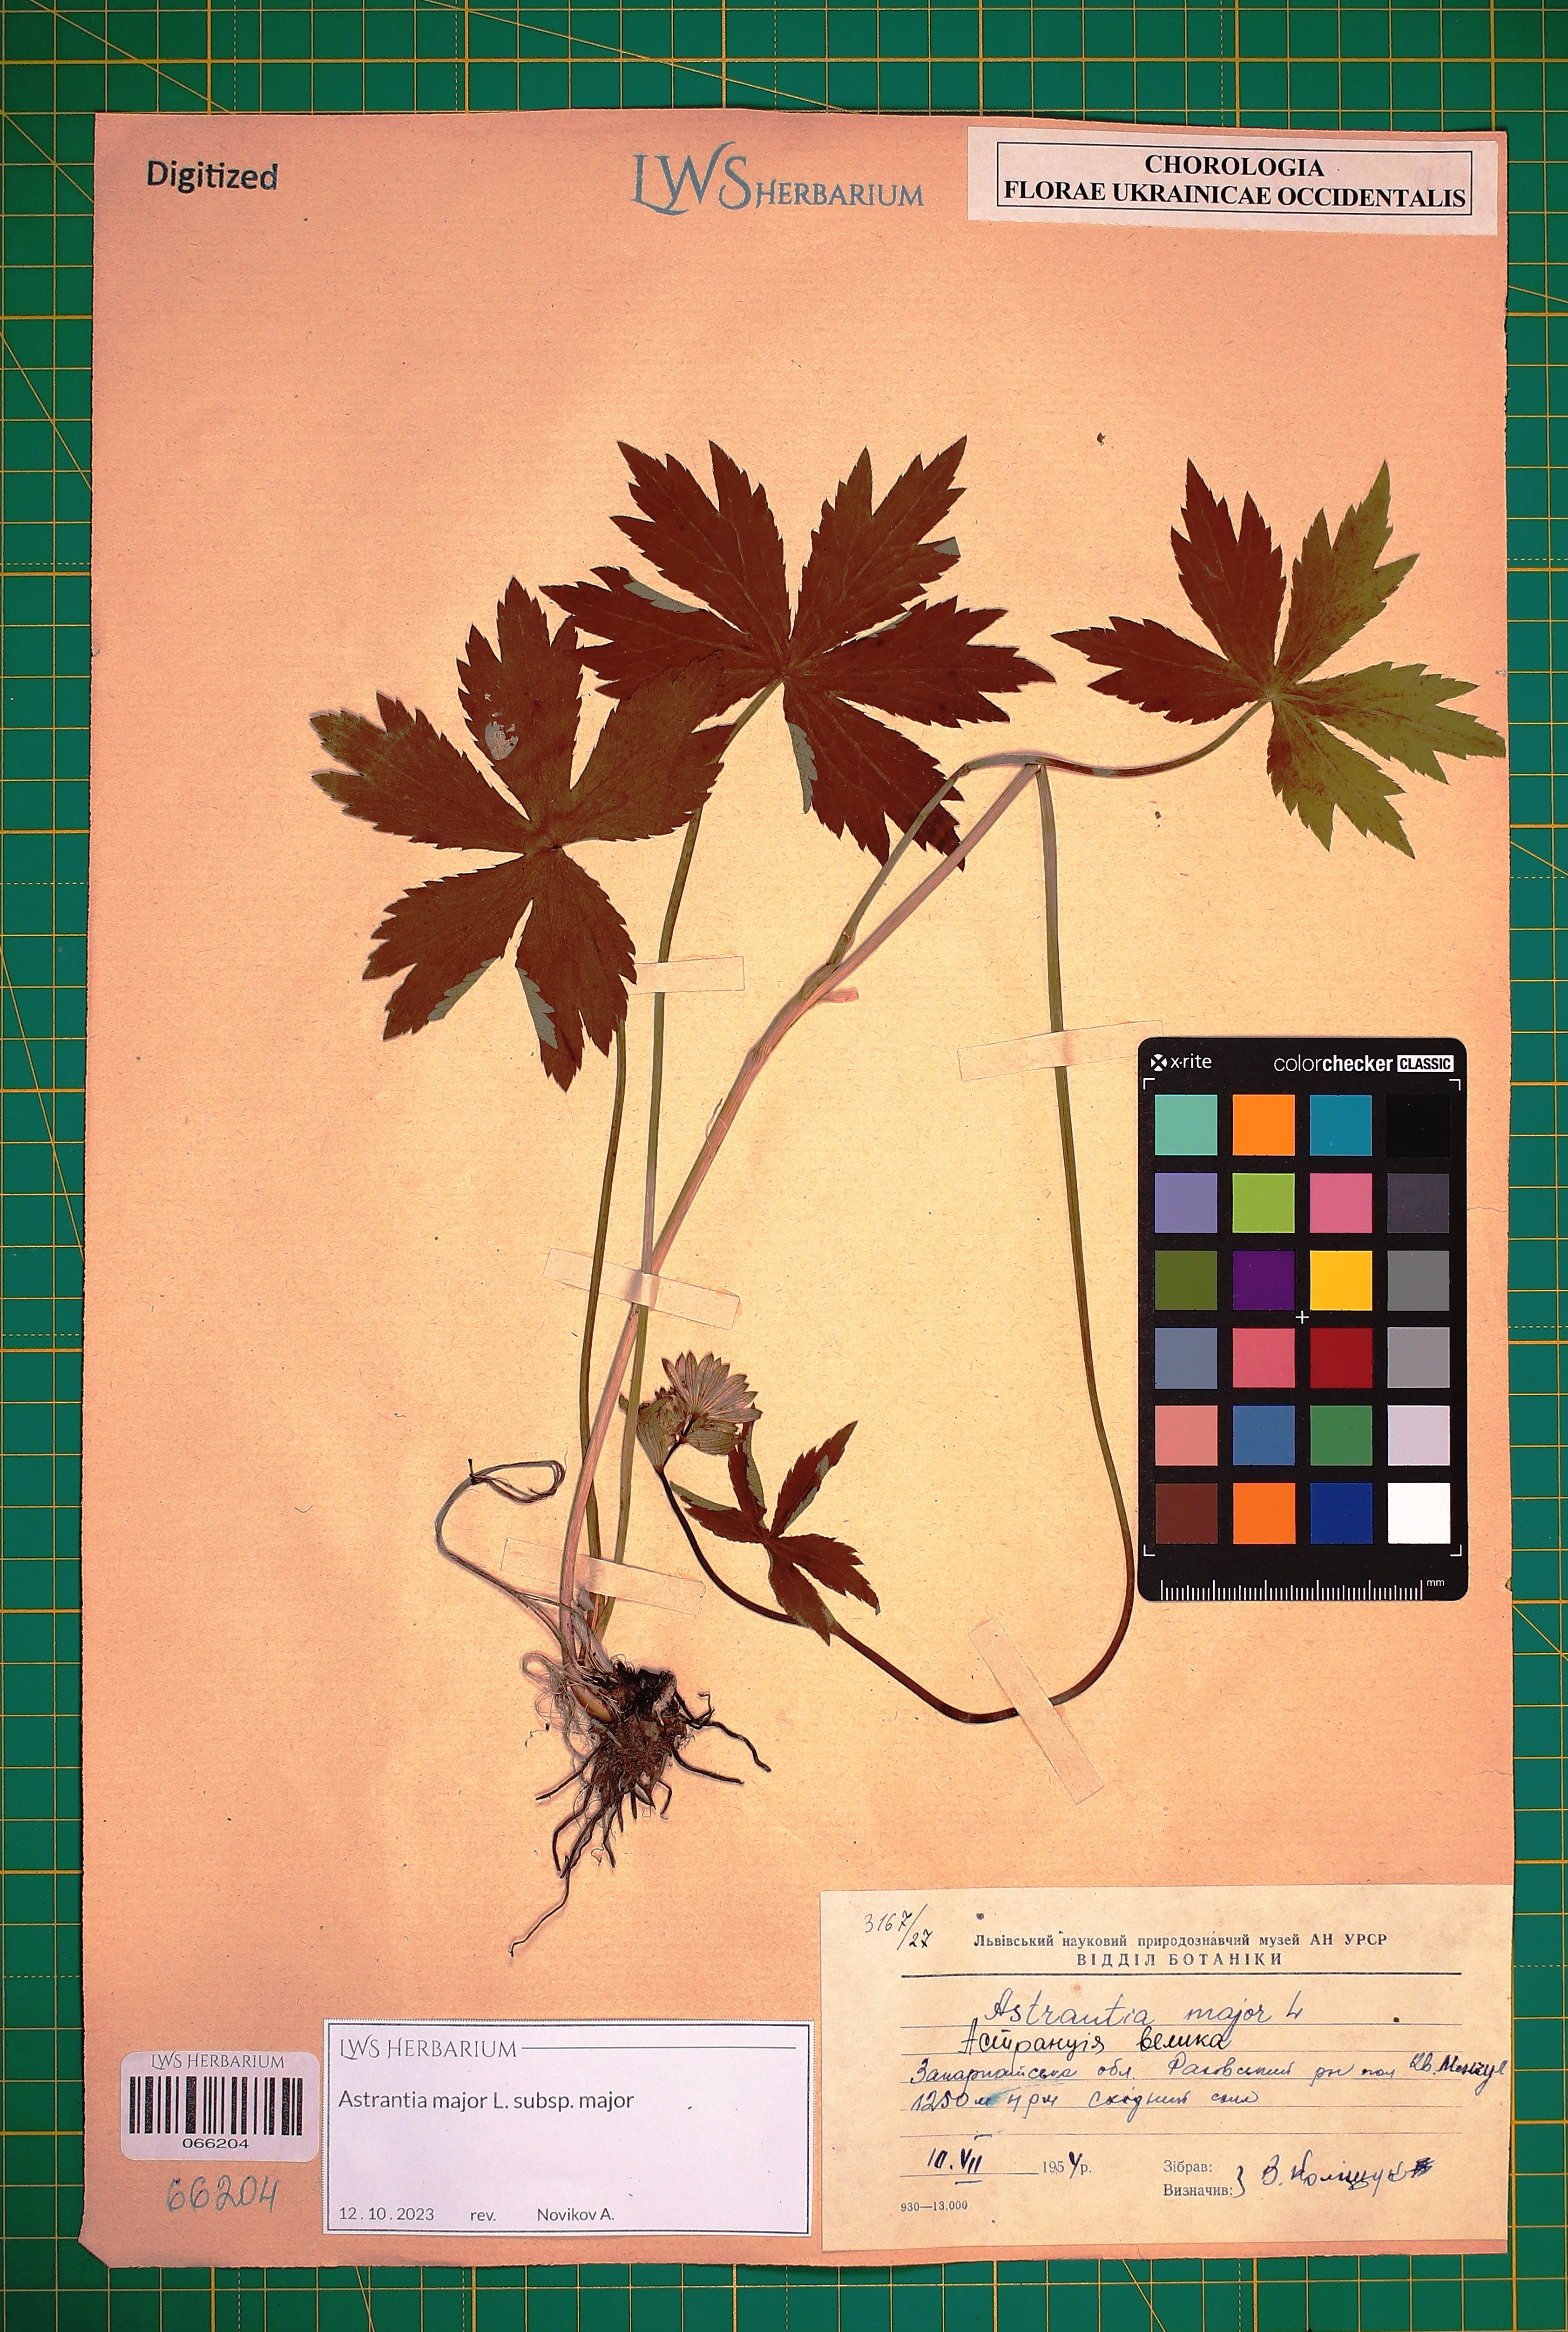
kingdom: Plantae
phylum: Tracheophyta
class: Magnoliopsida
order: Apiales
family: Apiaceae
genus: Astrantia
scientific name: Astrantia major
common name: Greater masterwort
